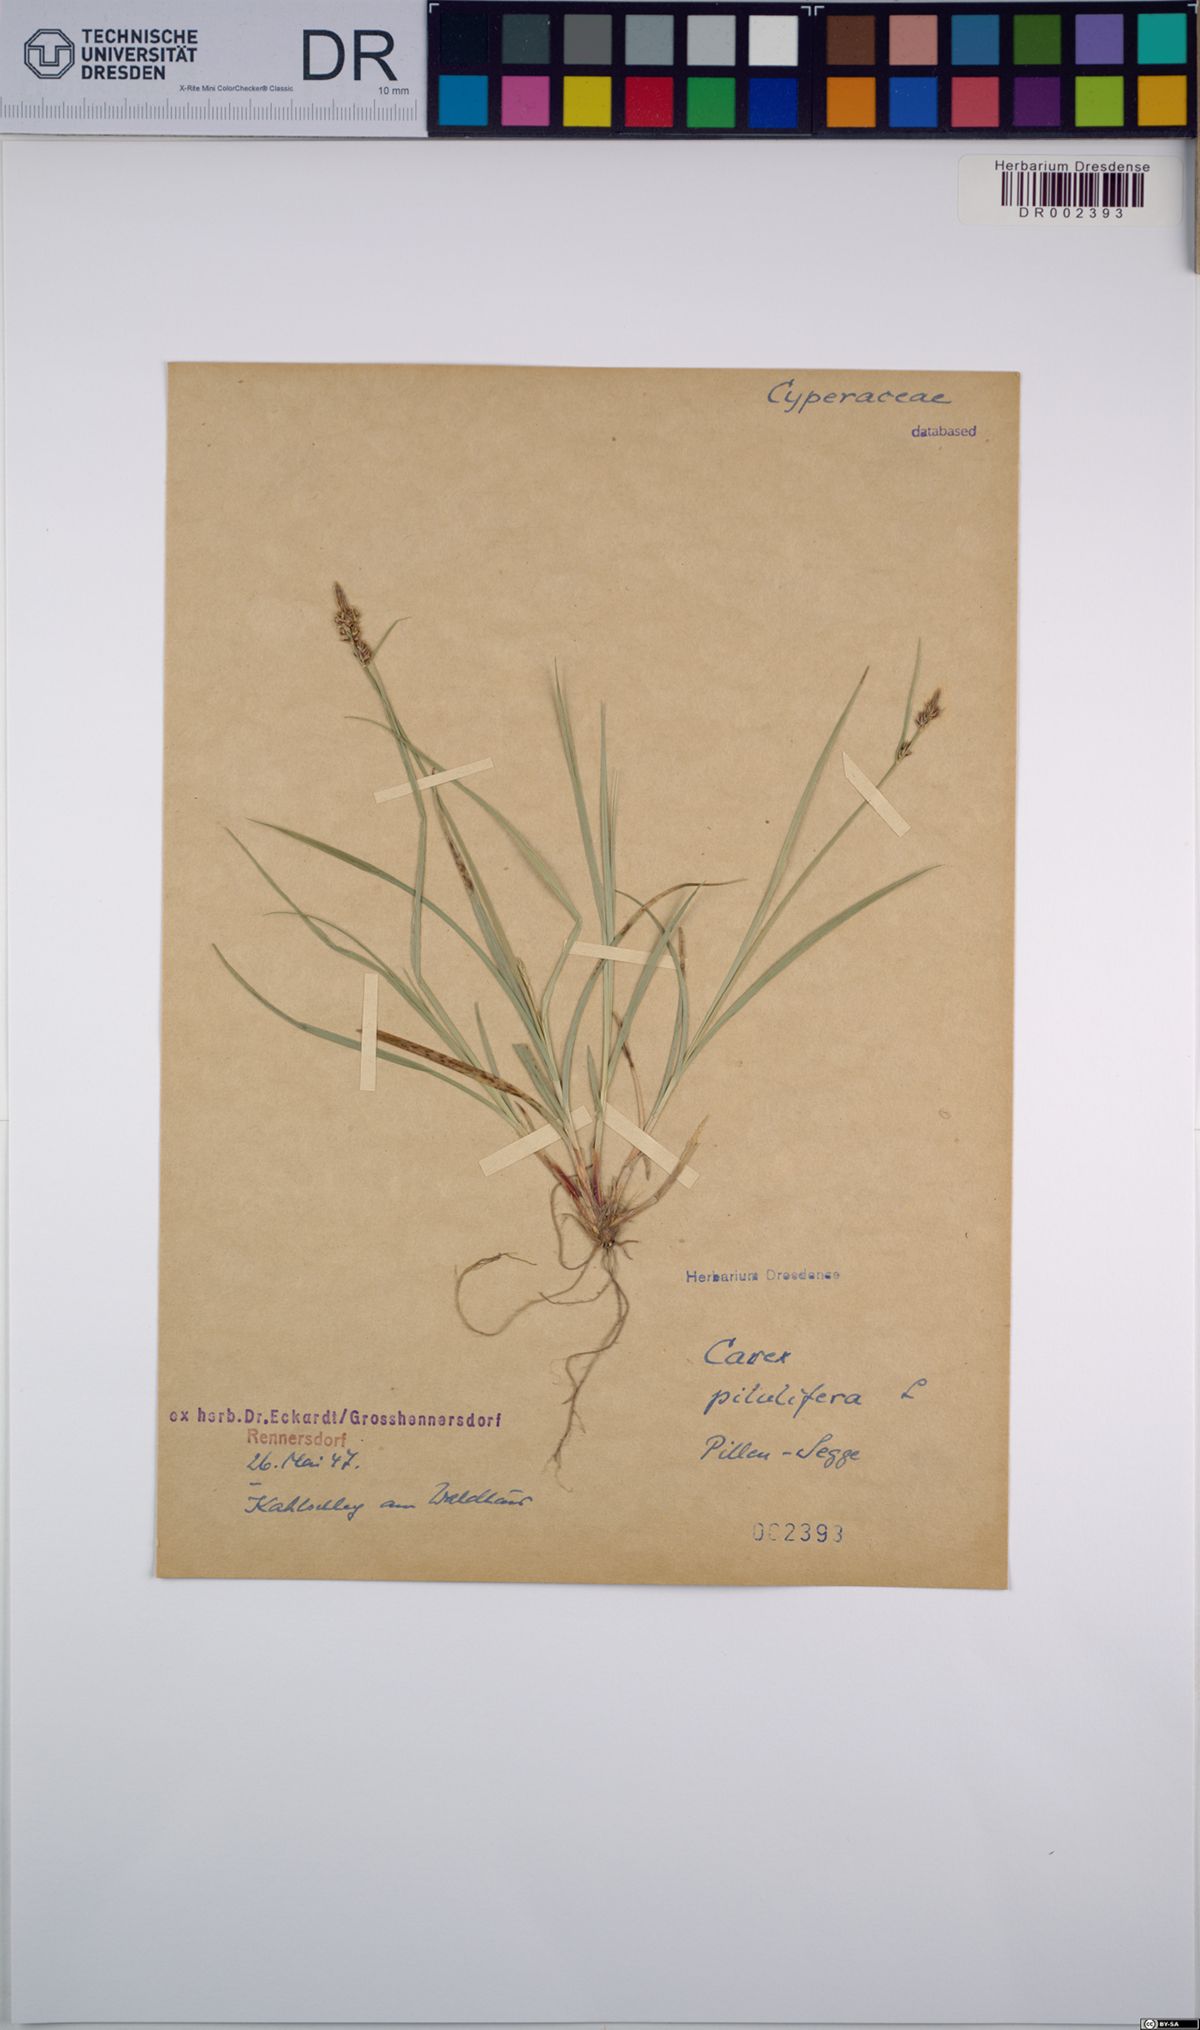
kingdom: Plantae
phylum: Tracheophyta
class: Liliopsida
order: Poales
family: Cyperaceae
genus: Carex
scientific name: Carex pilulifera
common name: Pill sedge
